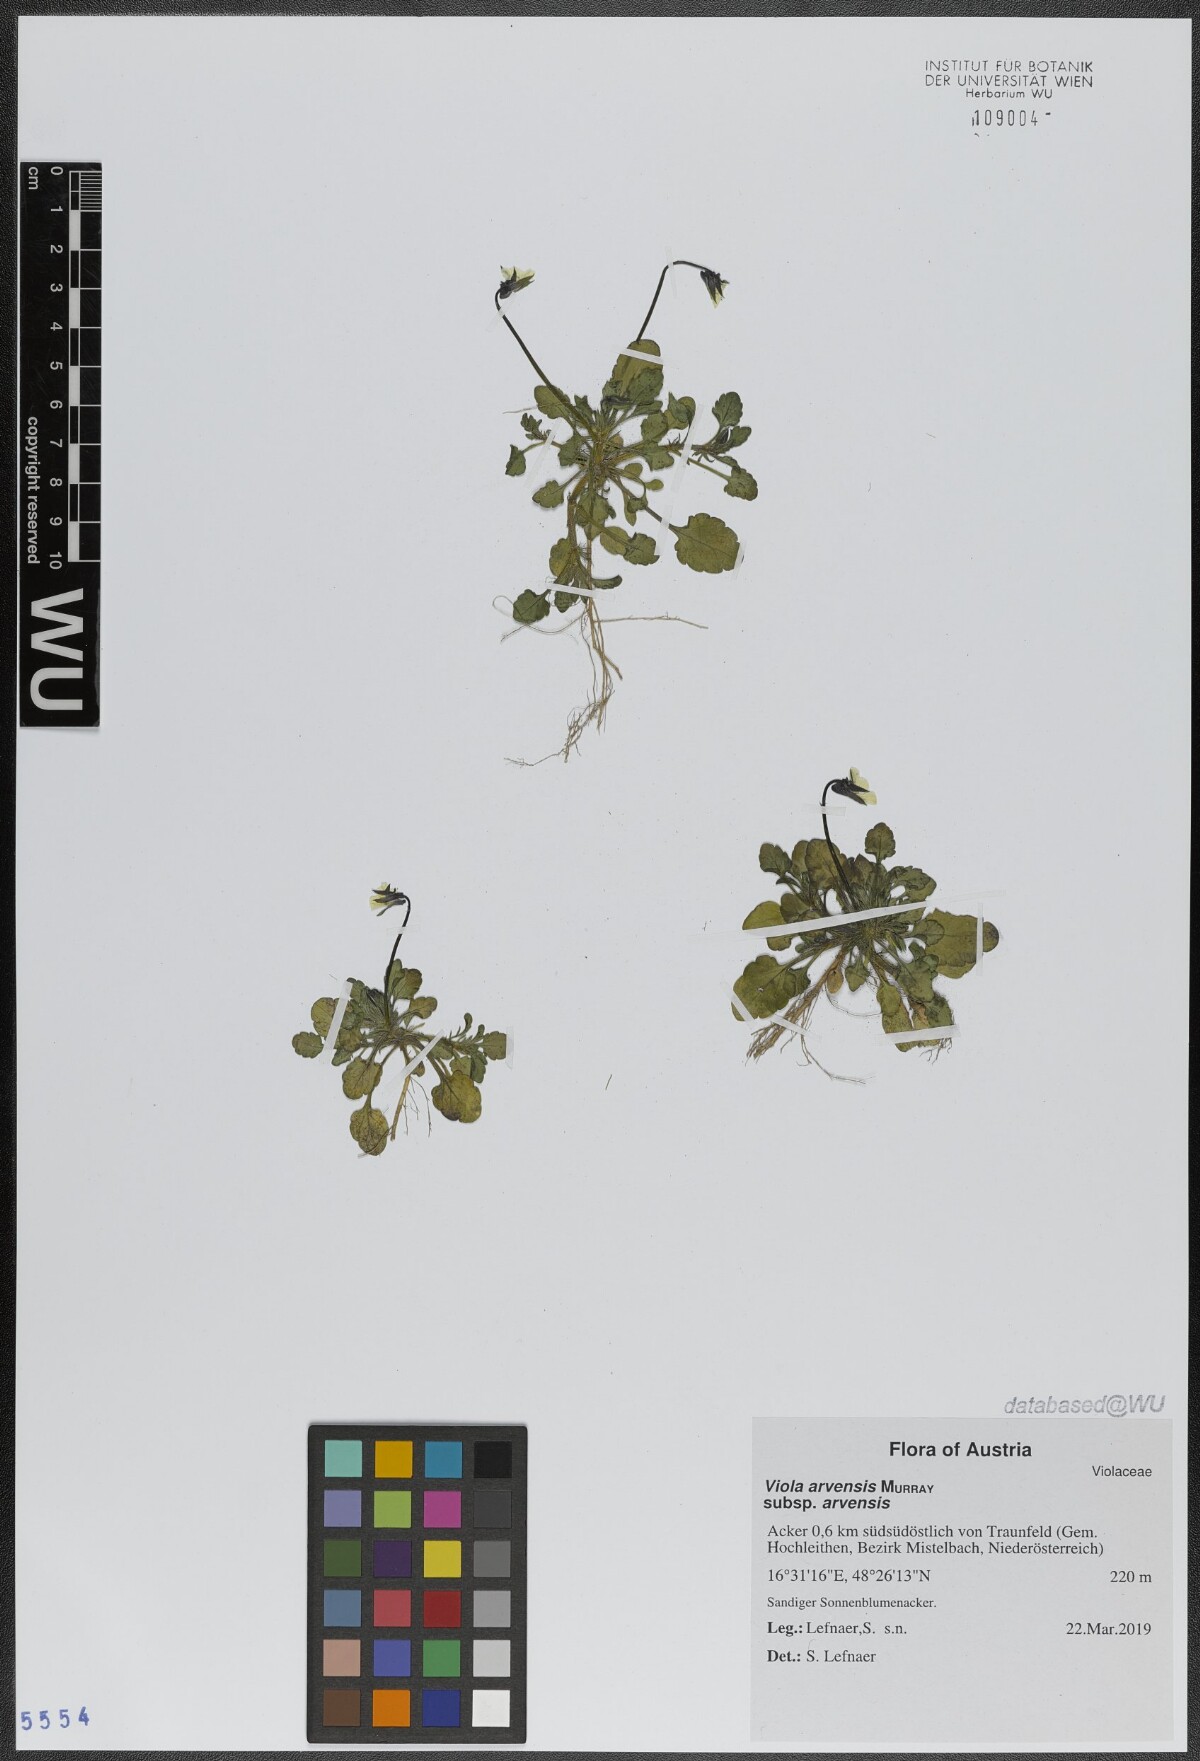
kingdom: Plantae
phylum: Tracheophyta
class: Magnoliopsida
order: Malpighiales
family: Violaceae
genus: Viola
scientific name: Viola arvensis
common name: Field pansy
